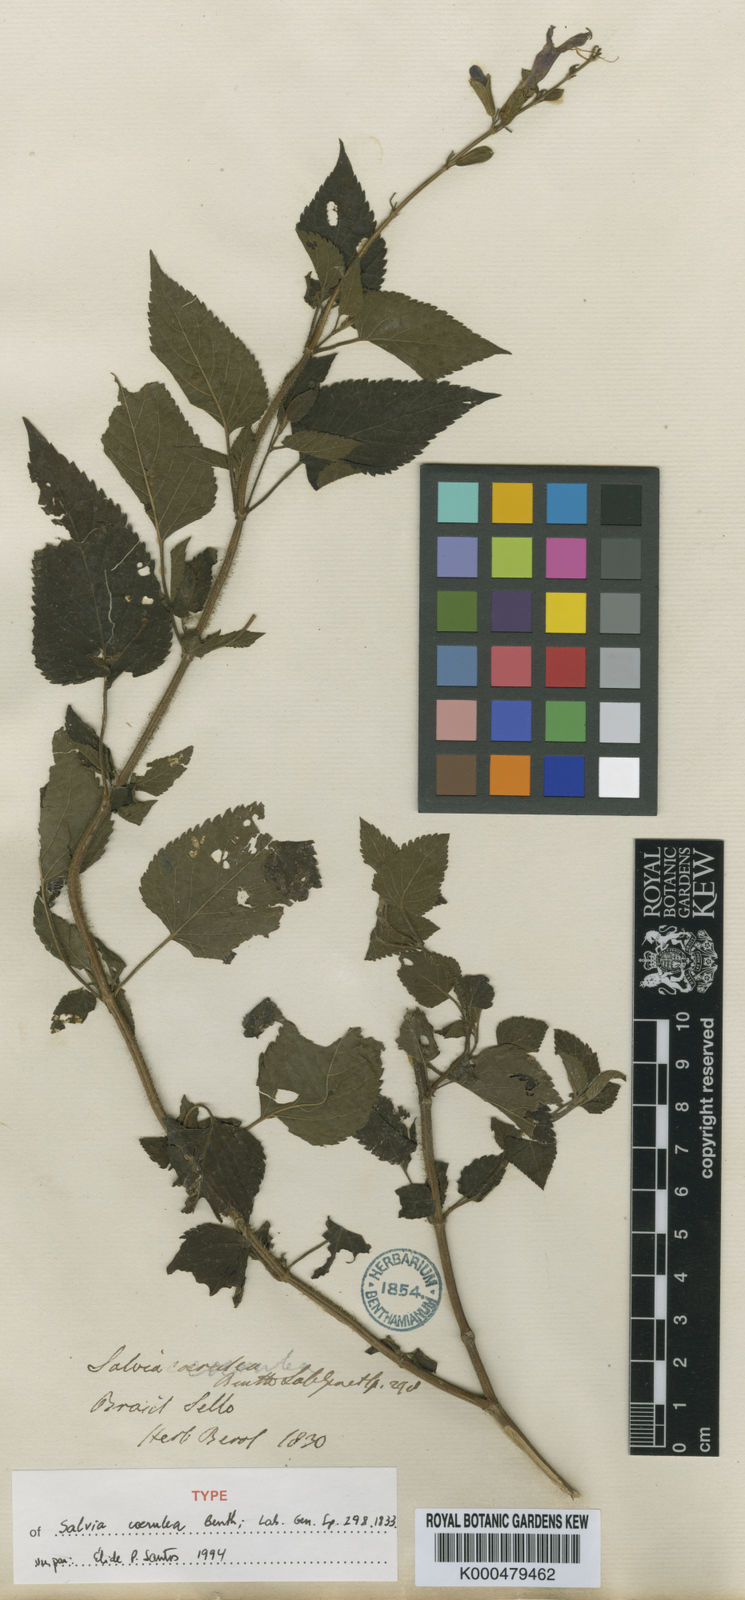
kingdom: Plantae
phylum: Tracheophyta
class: Magnoliopsida
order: Lamiales
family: Lamiaceae
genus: Salvia
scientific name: Salvia lamiifolia
